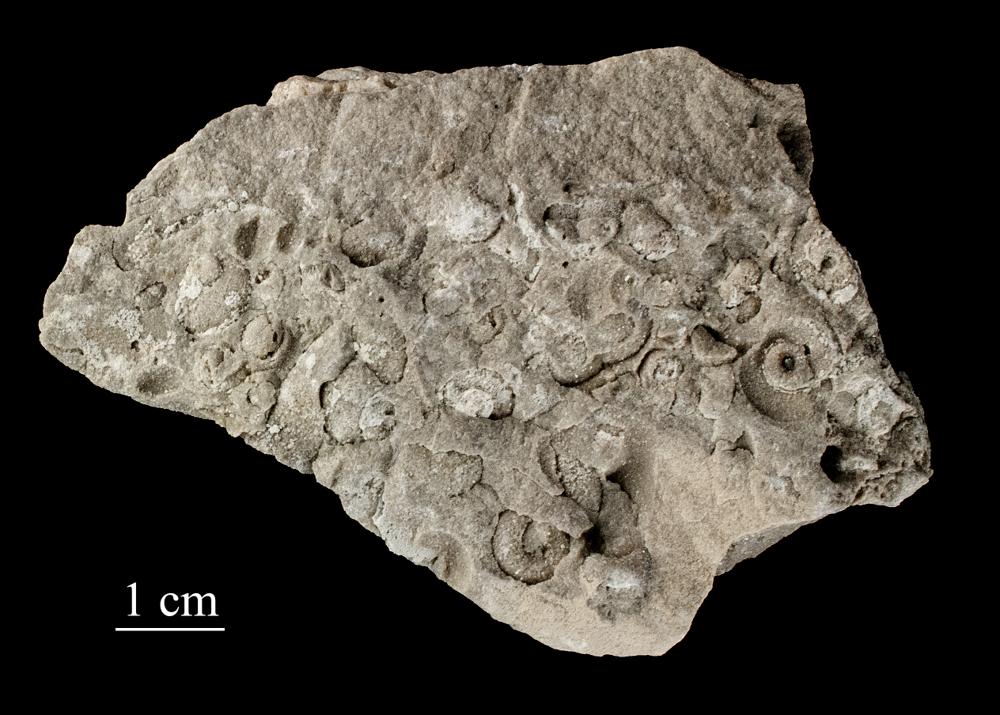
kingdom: Plantae
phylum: Tracheophyta
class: Pinopsida
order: Pinales
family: Cupressaceae
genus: Platycladus
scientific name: Platycladus
